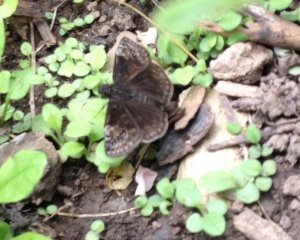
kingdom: Animalia
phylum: Arthropoda
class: Insecta
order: Lepidoptera
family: Hesperiidae
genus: Gesta
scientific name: Gesta
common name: Wild Indigo Duskywing
